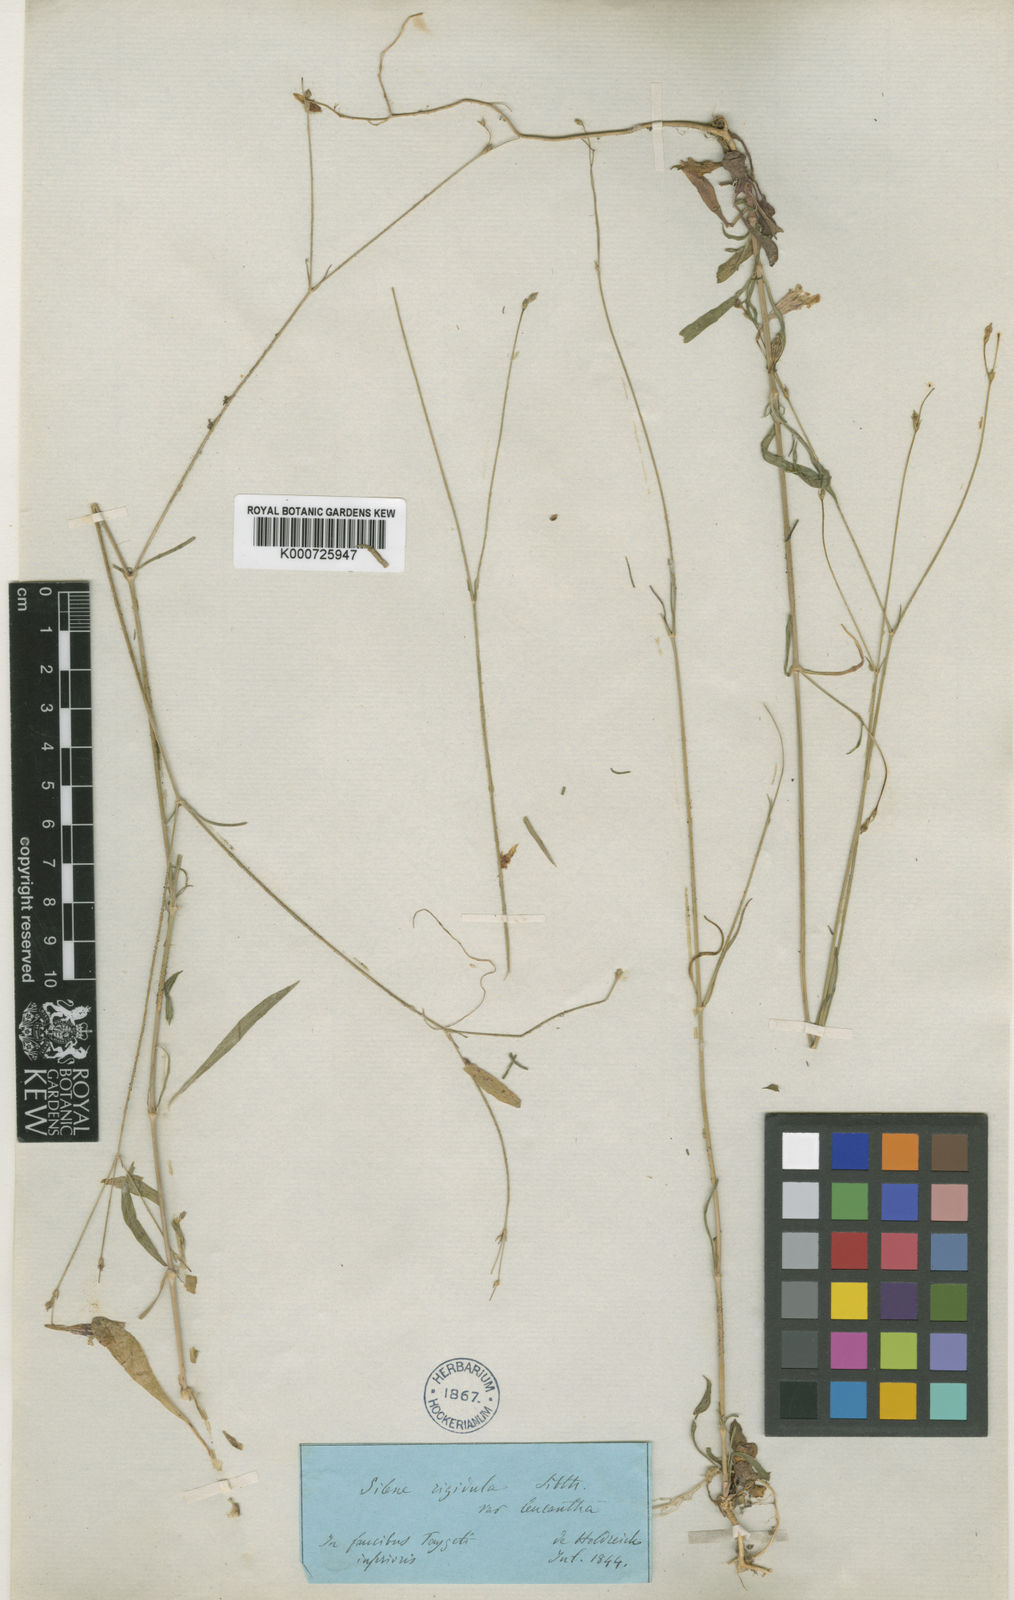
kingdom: Plantae
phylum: Tracheophyta
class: Magnoliopsida
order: Caryophyllales
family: Caryophyllaceae
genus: Silene
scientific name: Silene echinosperma
